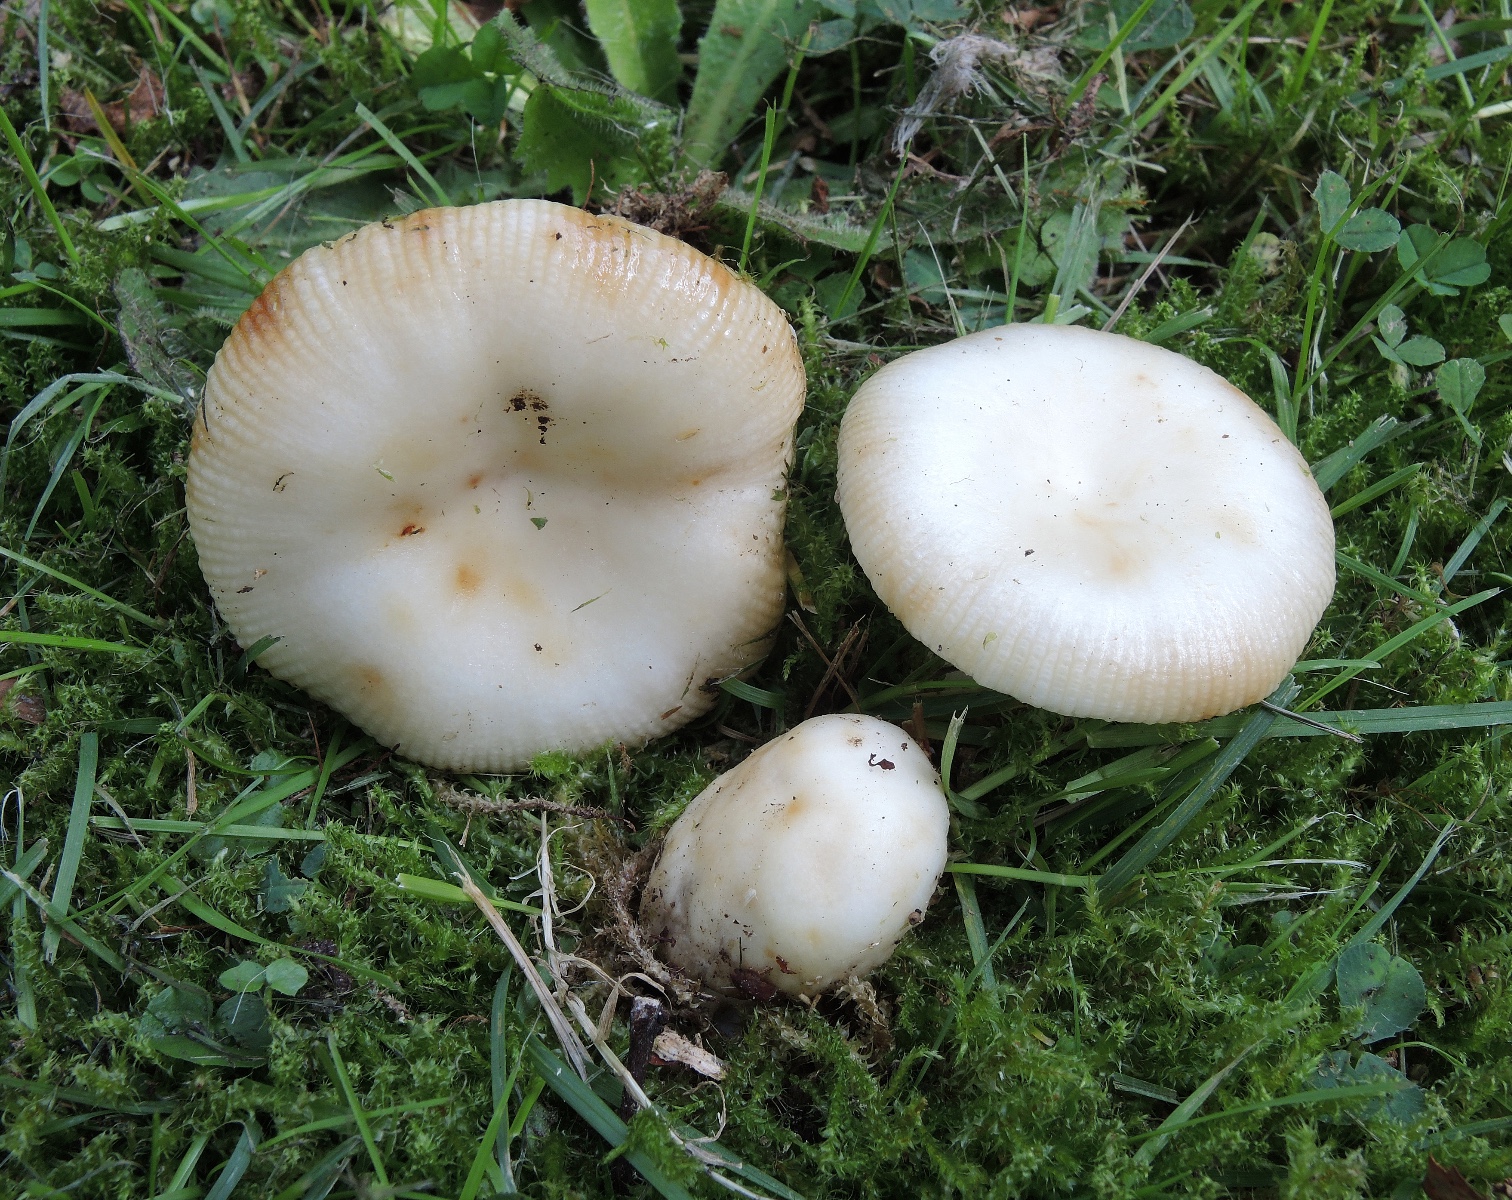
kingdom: Fungi
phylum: Basidiomycota
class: Agaricomycetes
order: Russulales
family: Russulaceae
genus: Russula
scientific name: Russula recondita
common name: mild kam-skørhat
